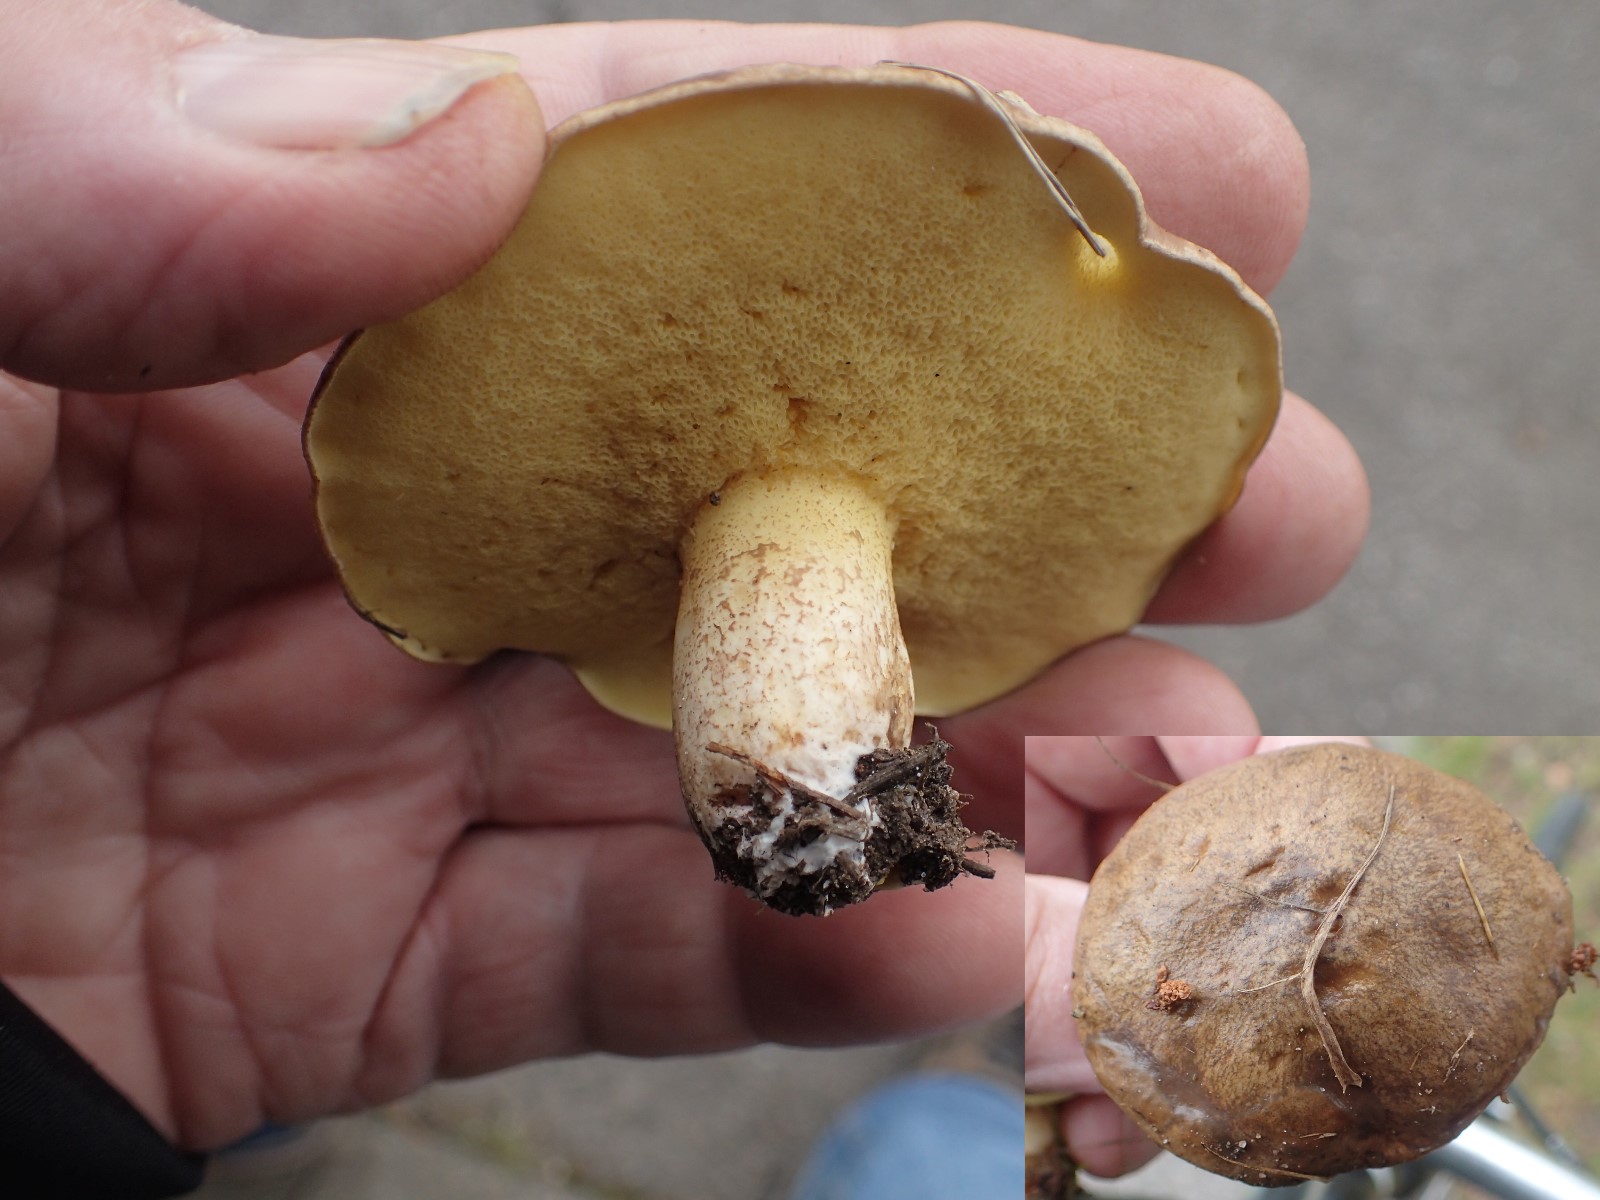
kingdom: Fungi
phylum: Basidiomycota
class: Agaricomycetes
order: Boletales
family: Suillaceae
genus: Suillus
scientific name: Suillus granulatus
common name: kornet slimrørhat
